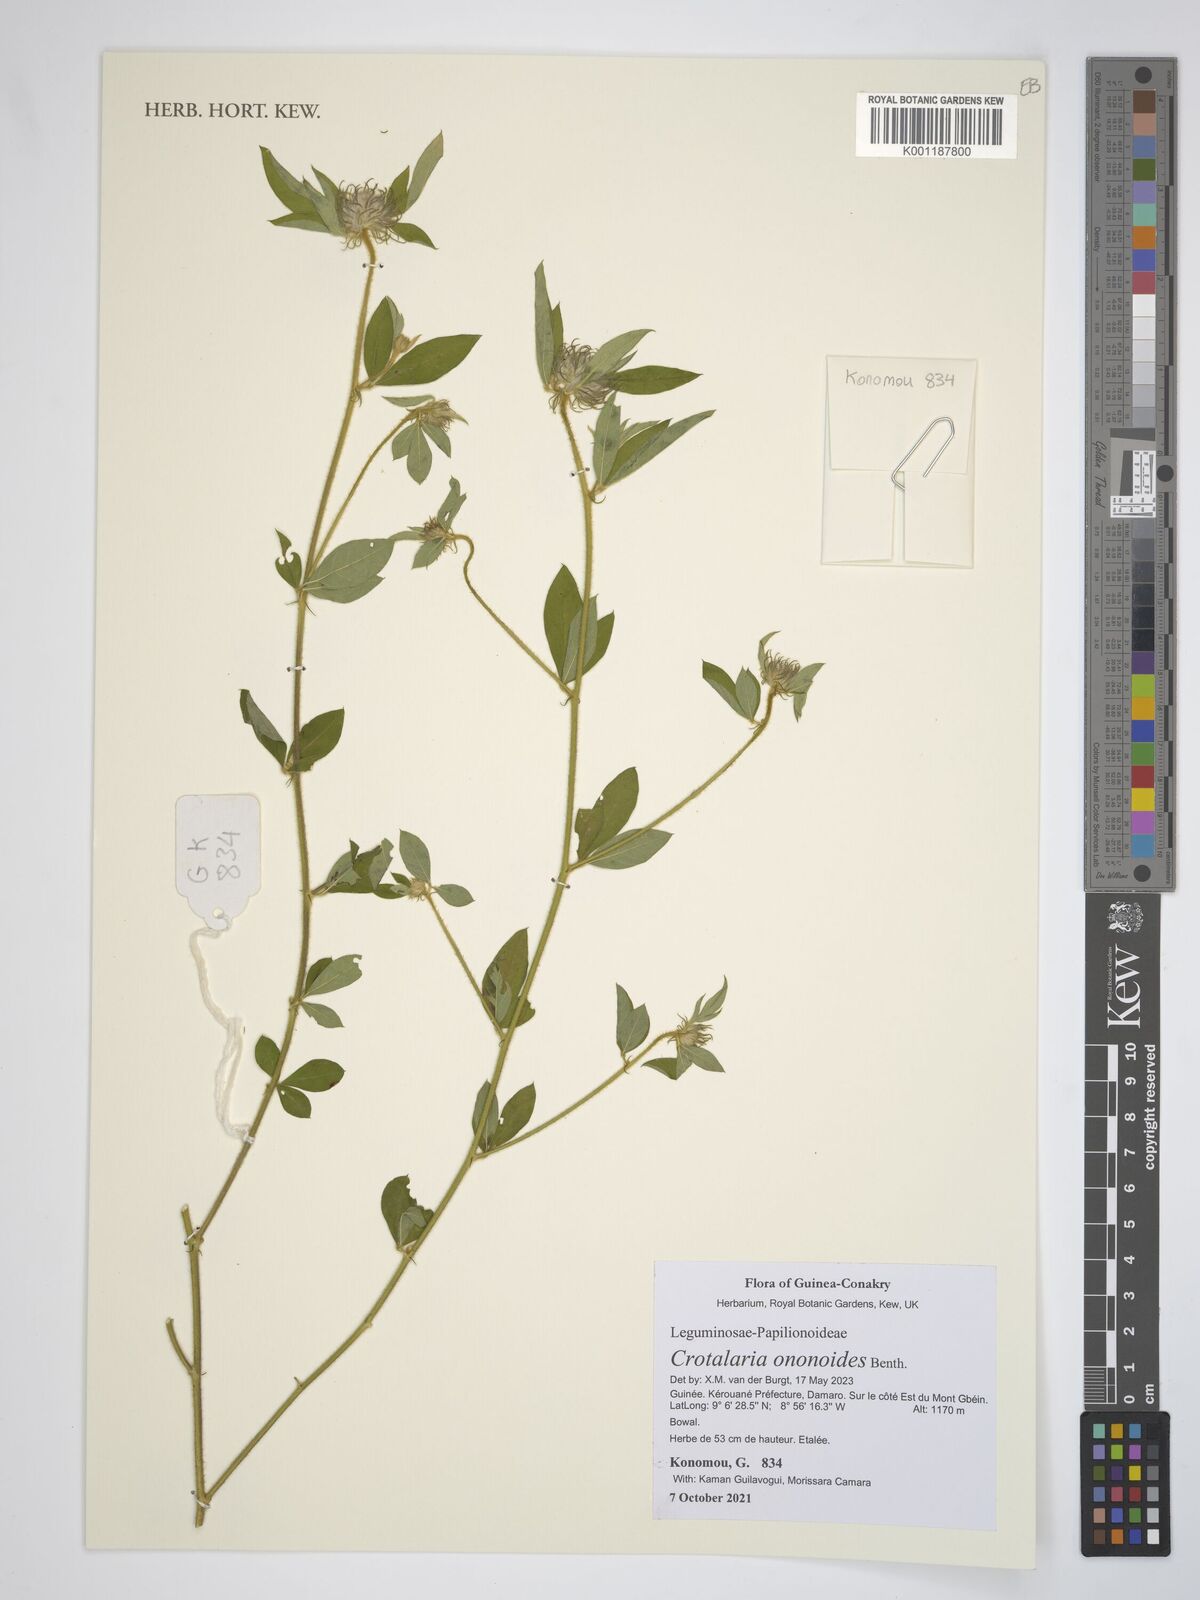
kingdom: Plantae
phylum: Tracheophyta
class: Magnoliopsida
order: Fabales
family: Fabaceae
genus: Crotalaria
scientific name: Crotalaria ononoides
